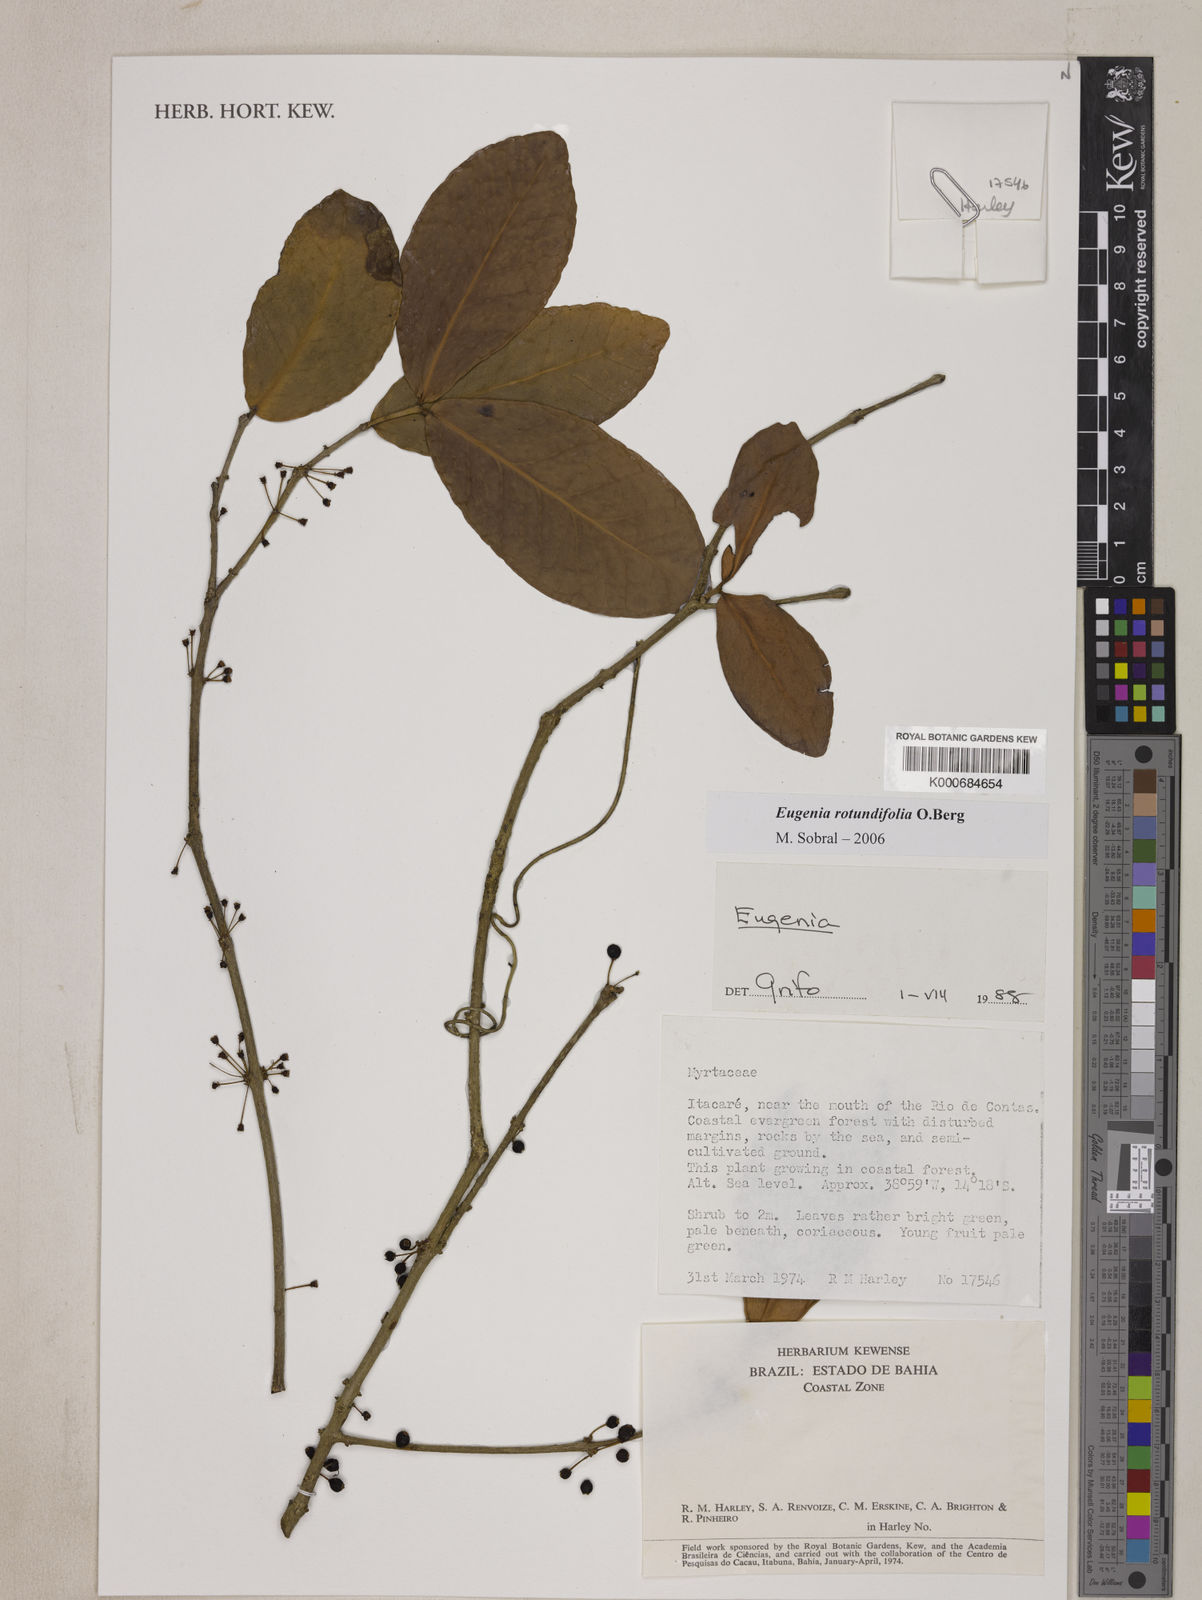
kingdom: Plantae
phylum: Tracheophyta
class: Magnoliopsida
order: Myrtales
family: Myrtaceae
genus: Eugenia
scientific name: Eugenia umbelliflora
